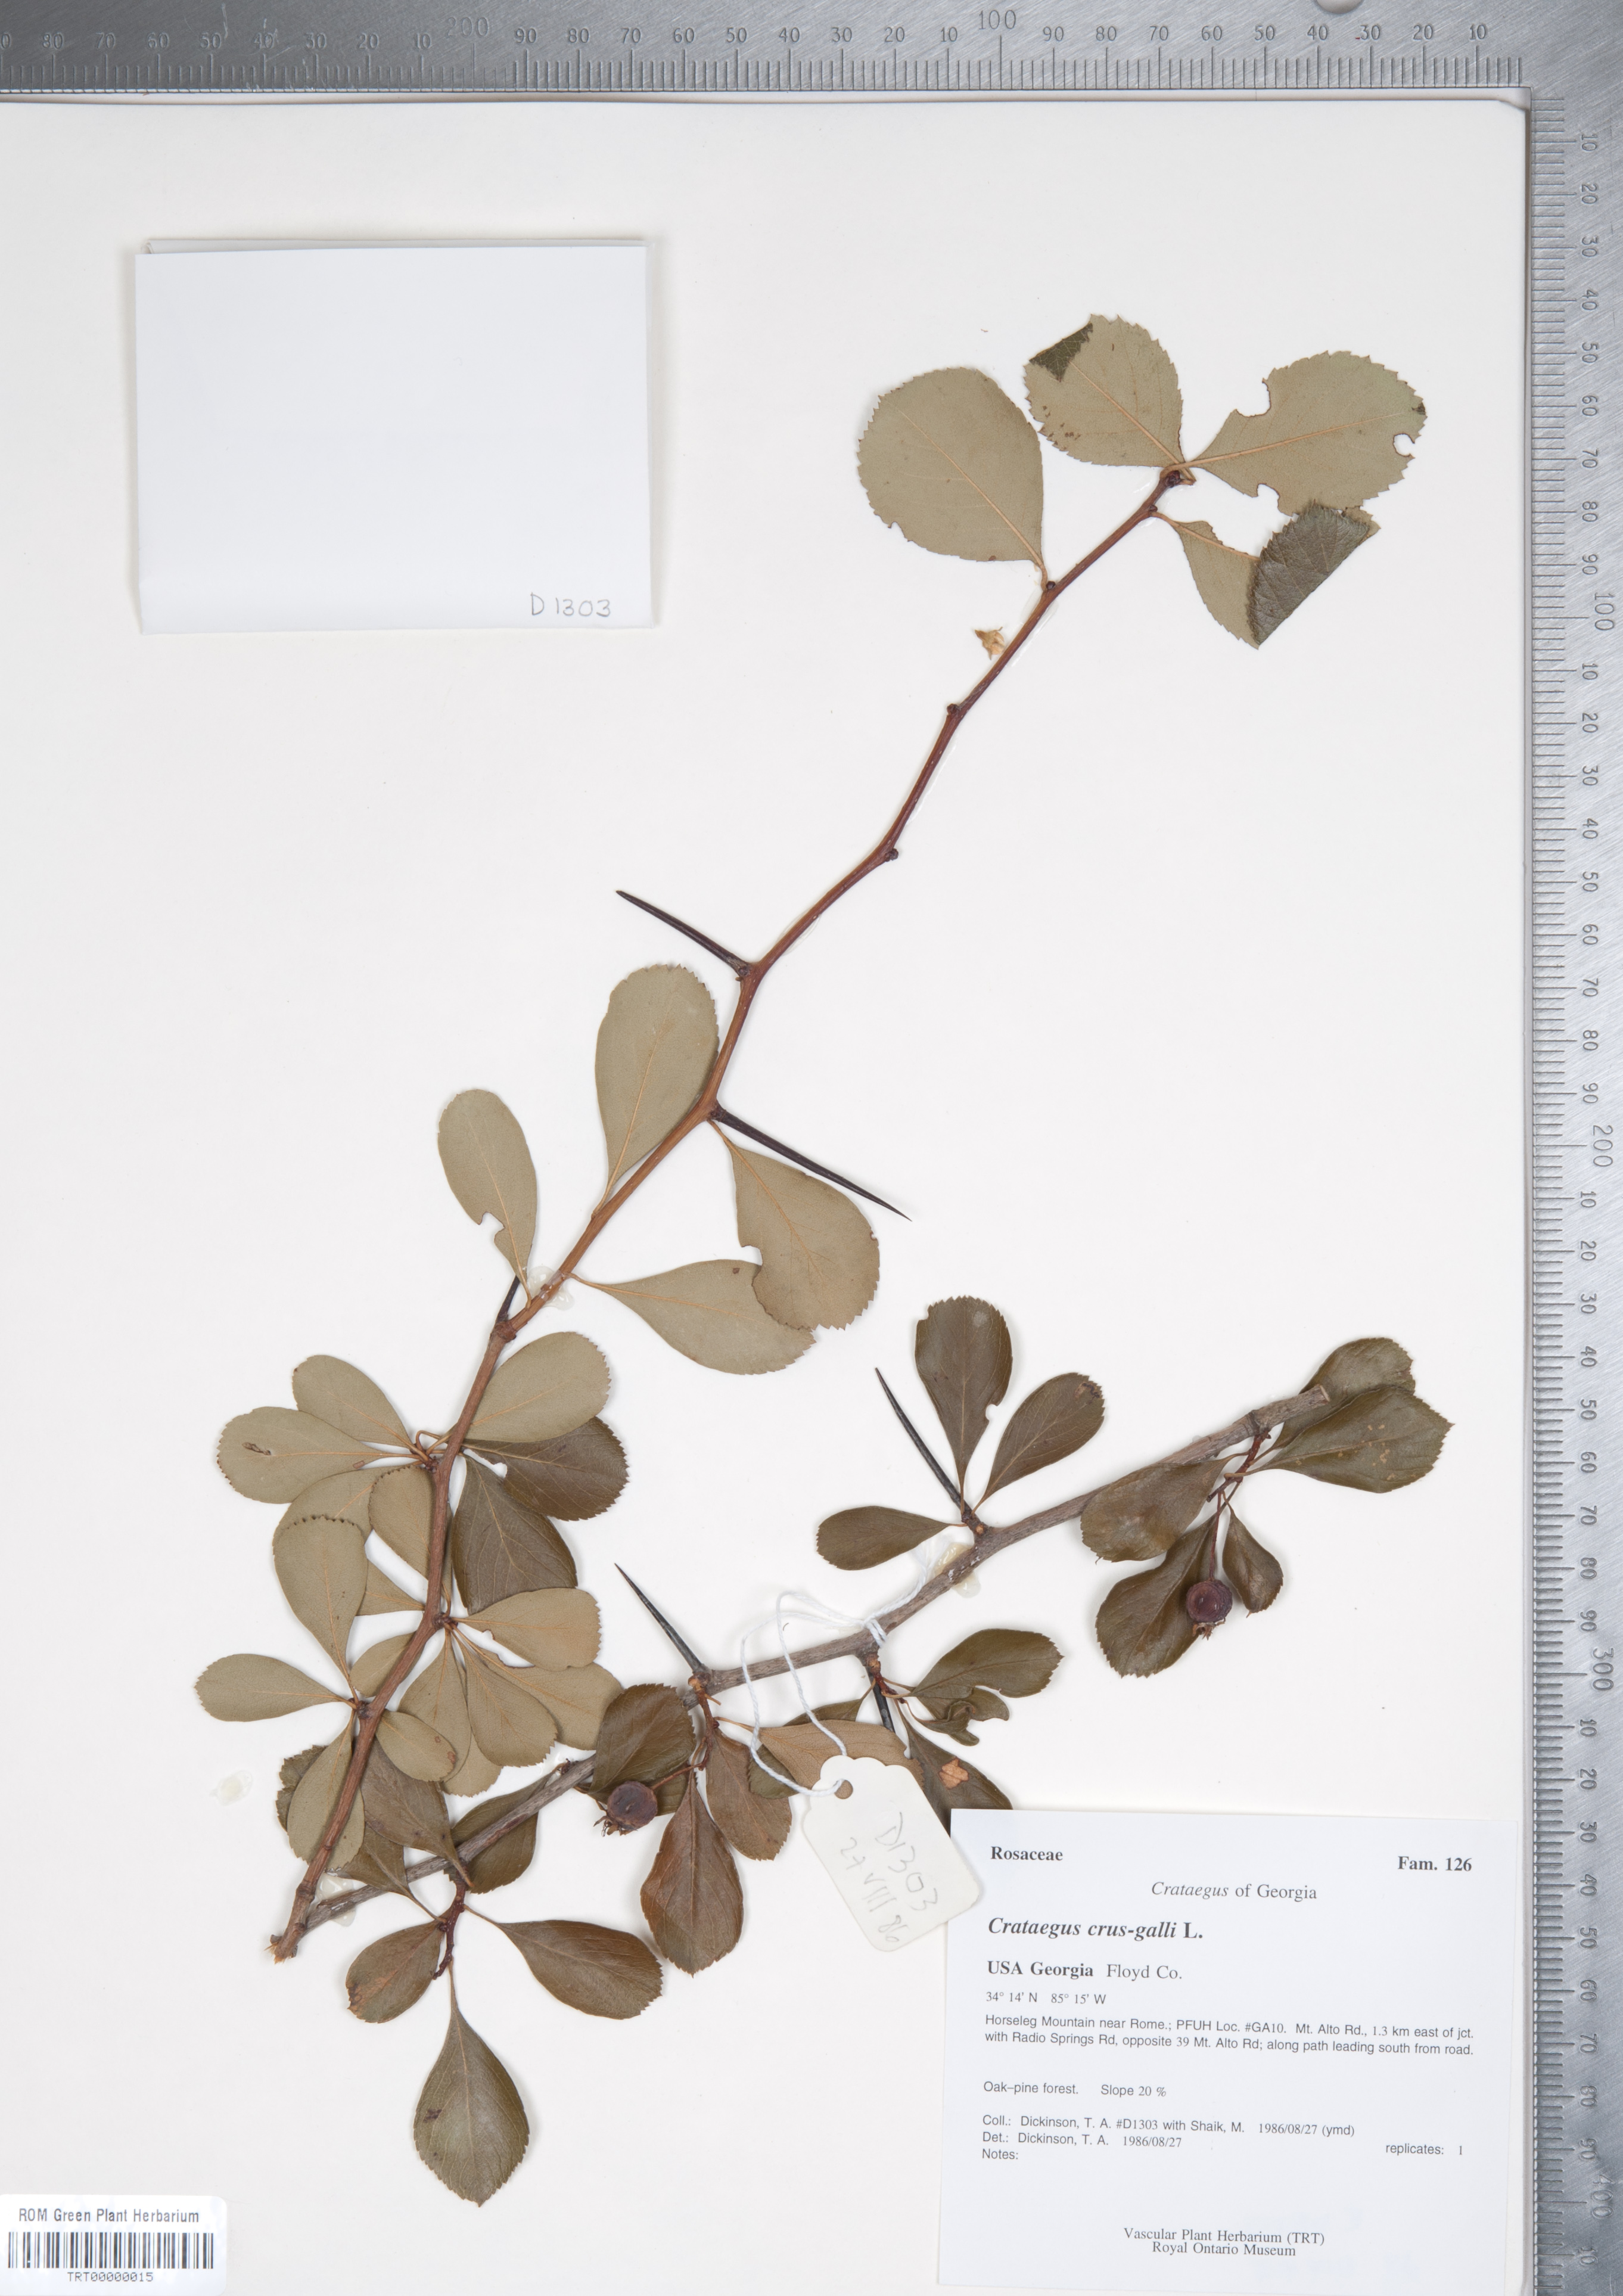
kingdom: Plantae
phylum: Tracheophyta
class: Magnoliopsida
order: Rosales
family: Rosaceae
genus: Crataegus
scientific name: Crataegus crus-galli
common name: Cockspurthorn
